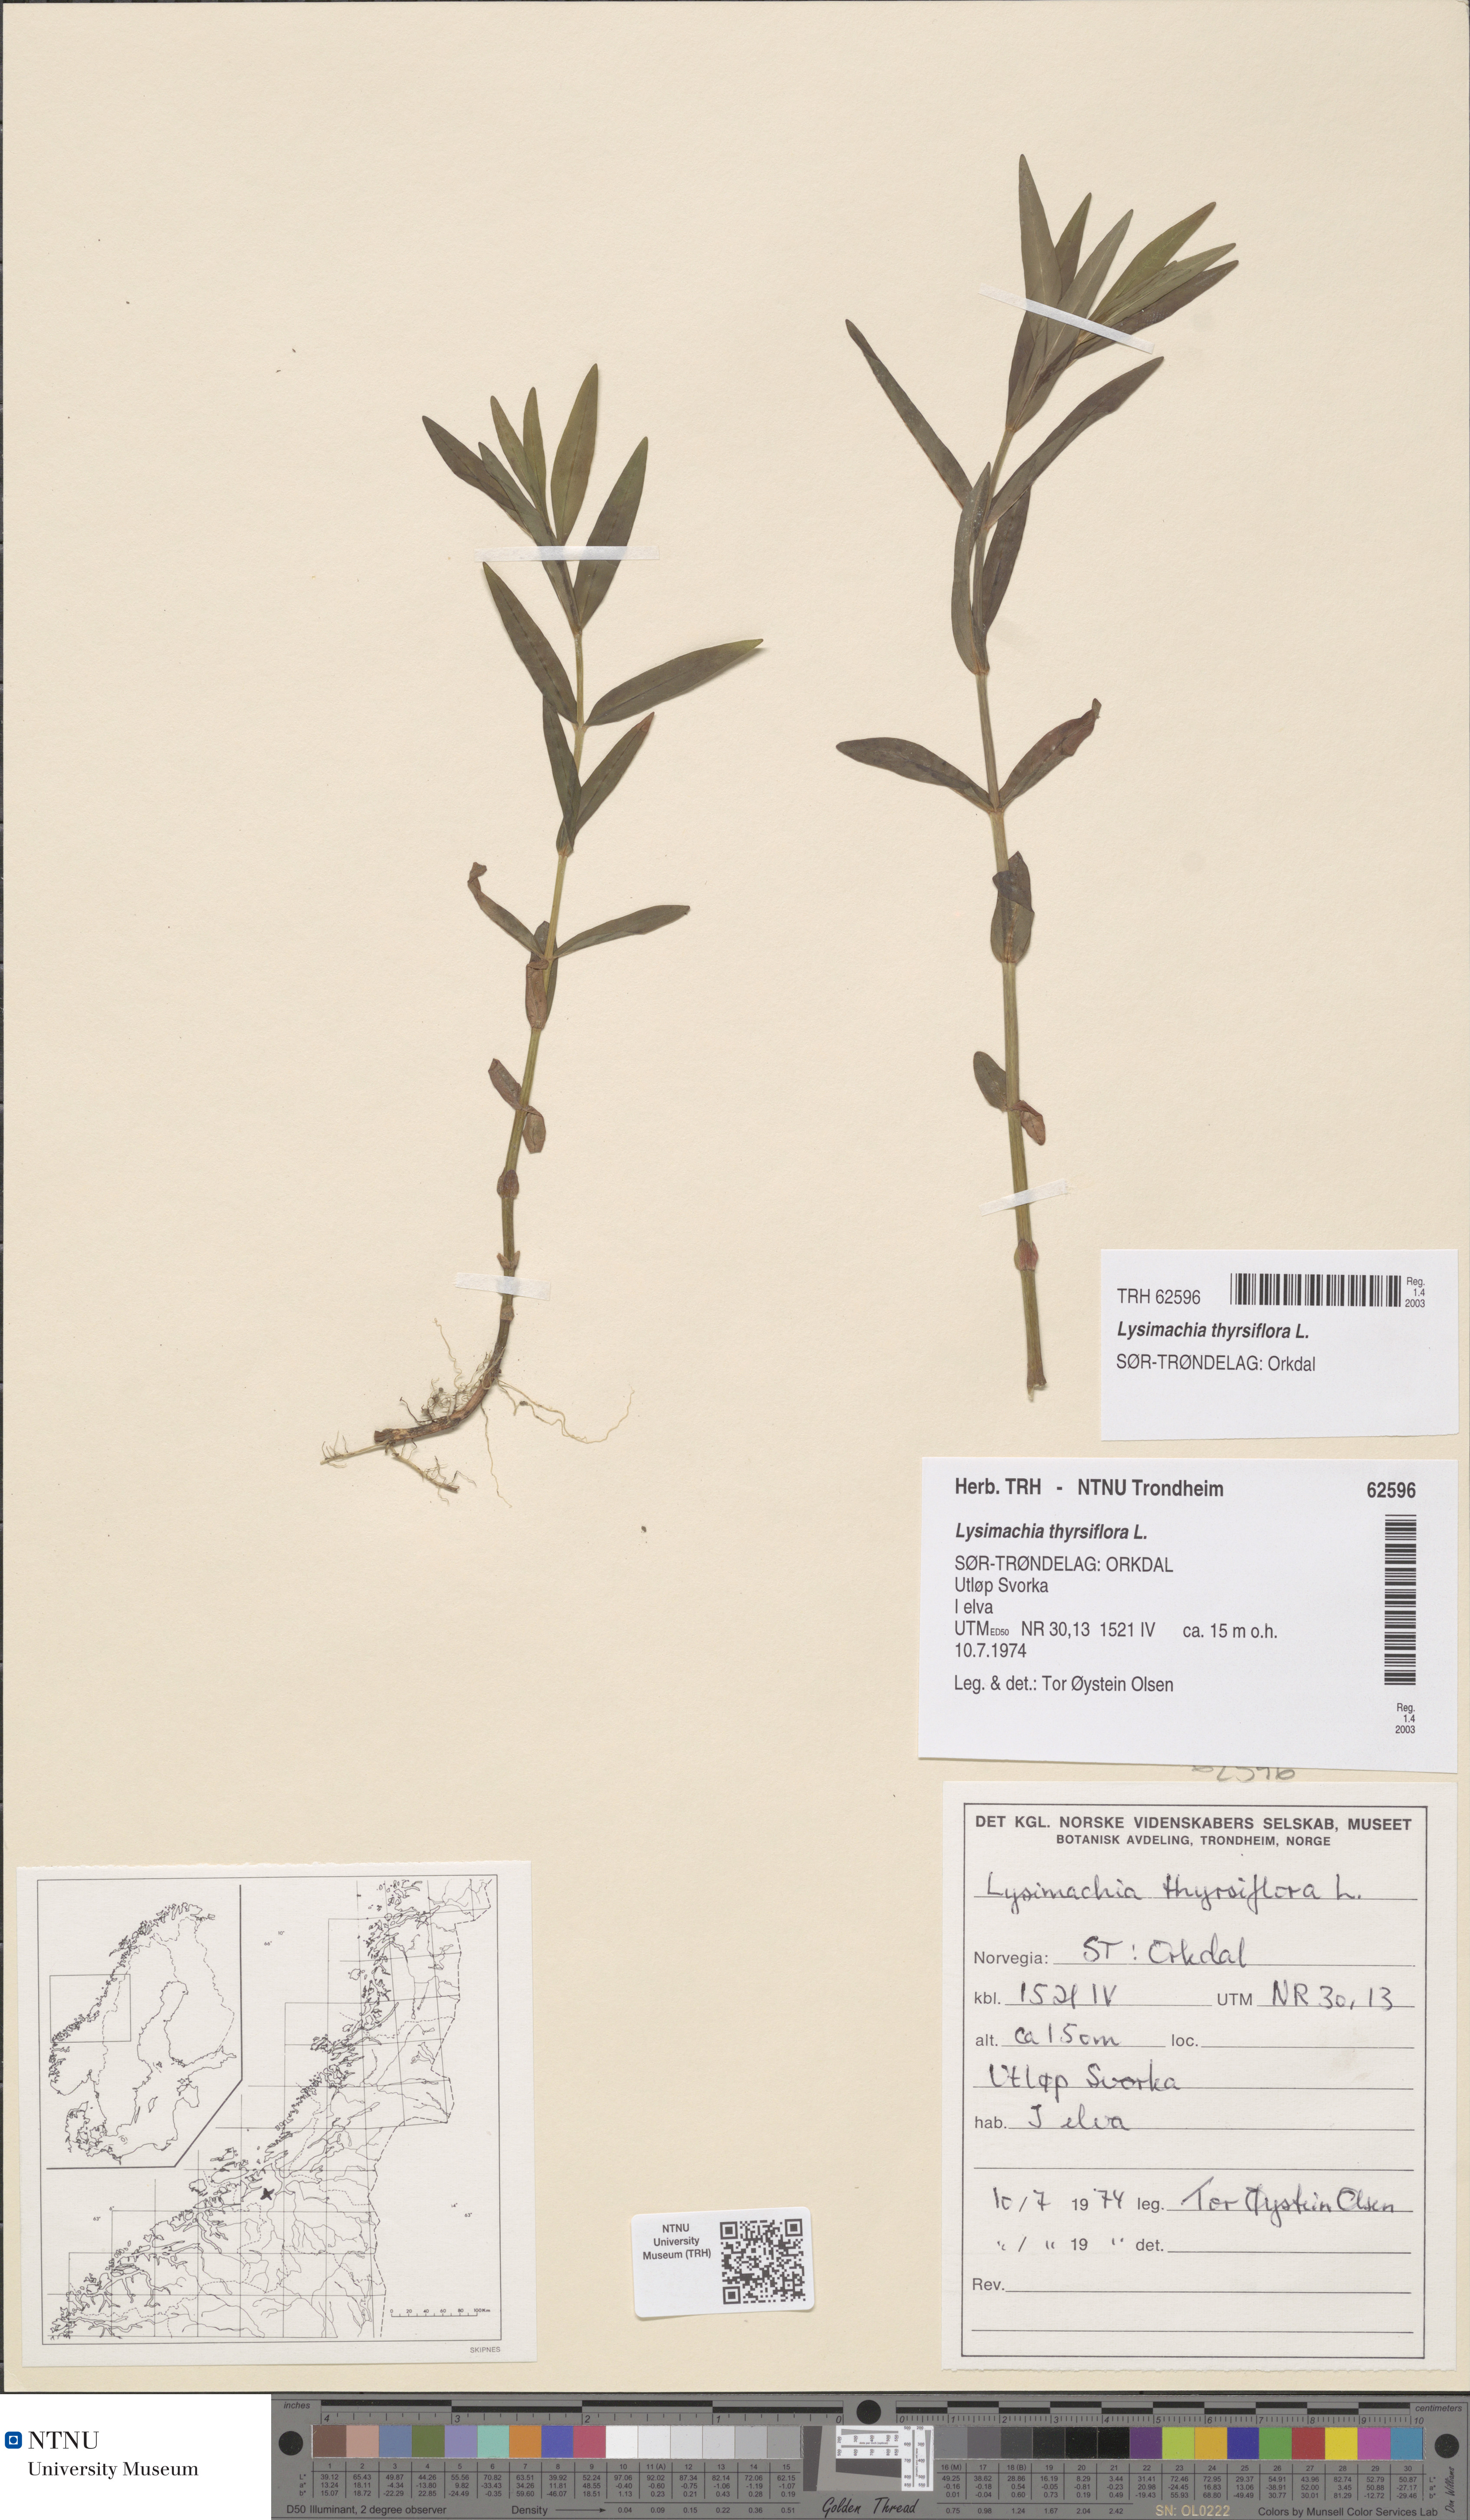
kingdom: Plantae
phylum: Tracheophyta
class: Magnoliopsida
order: Ericales
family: Primulaceae
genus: Lysimachia
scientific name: Lysimachia thyrsiflora
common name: Tufted loosestrife
